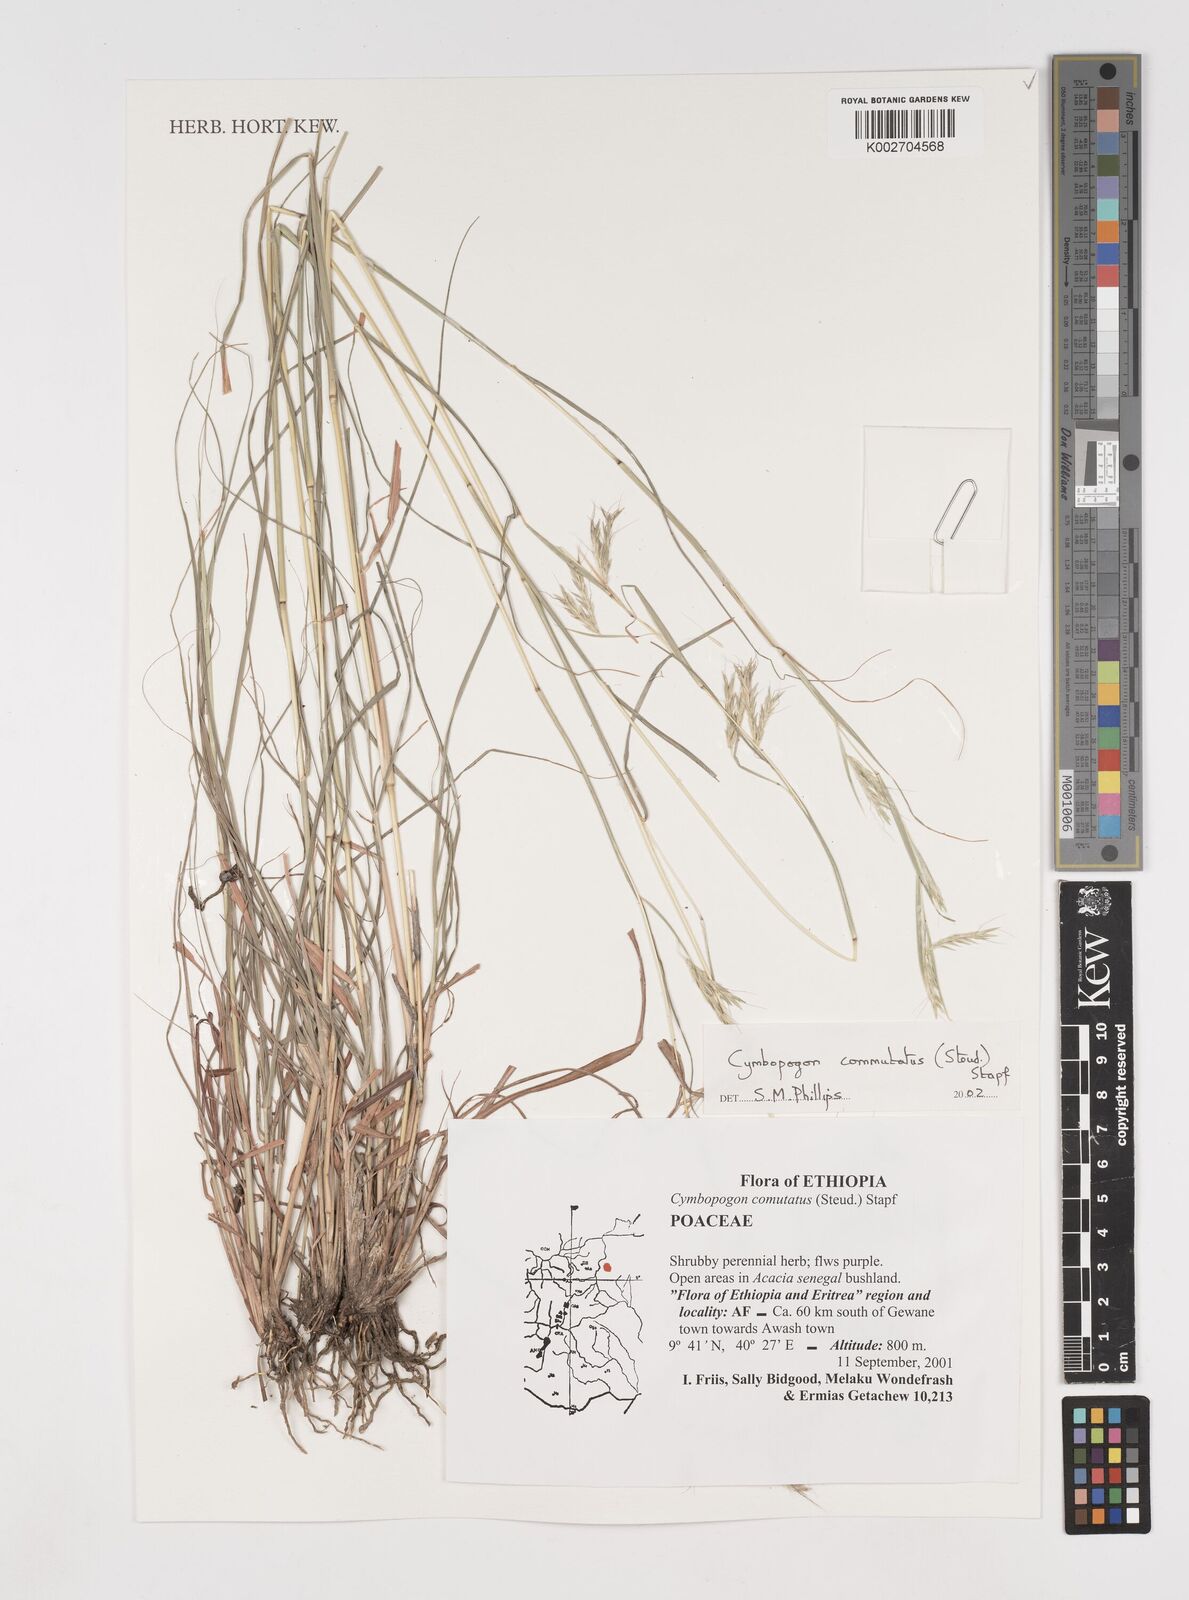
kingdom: Plantae
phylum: Tracheophyta
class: Liliopsida
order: Poales
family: Poaceae
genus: Cymbopogon
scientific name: Cymbopogon commutatus
